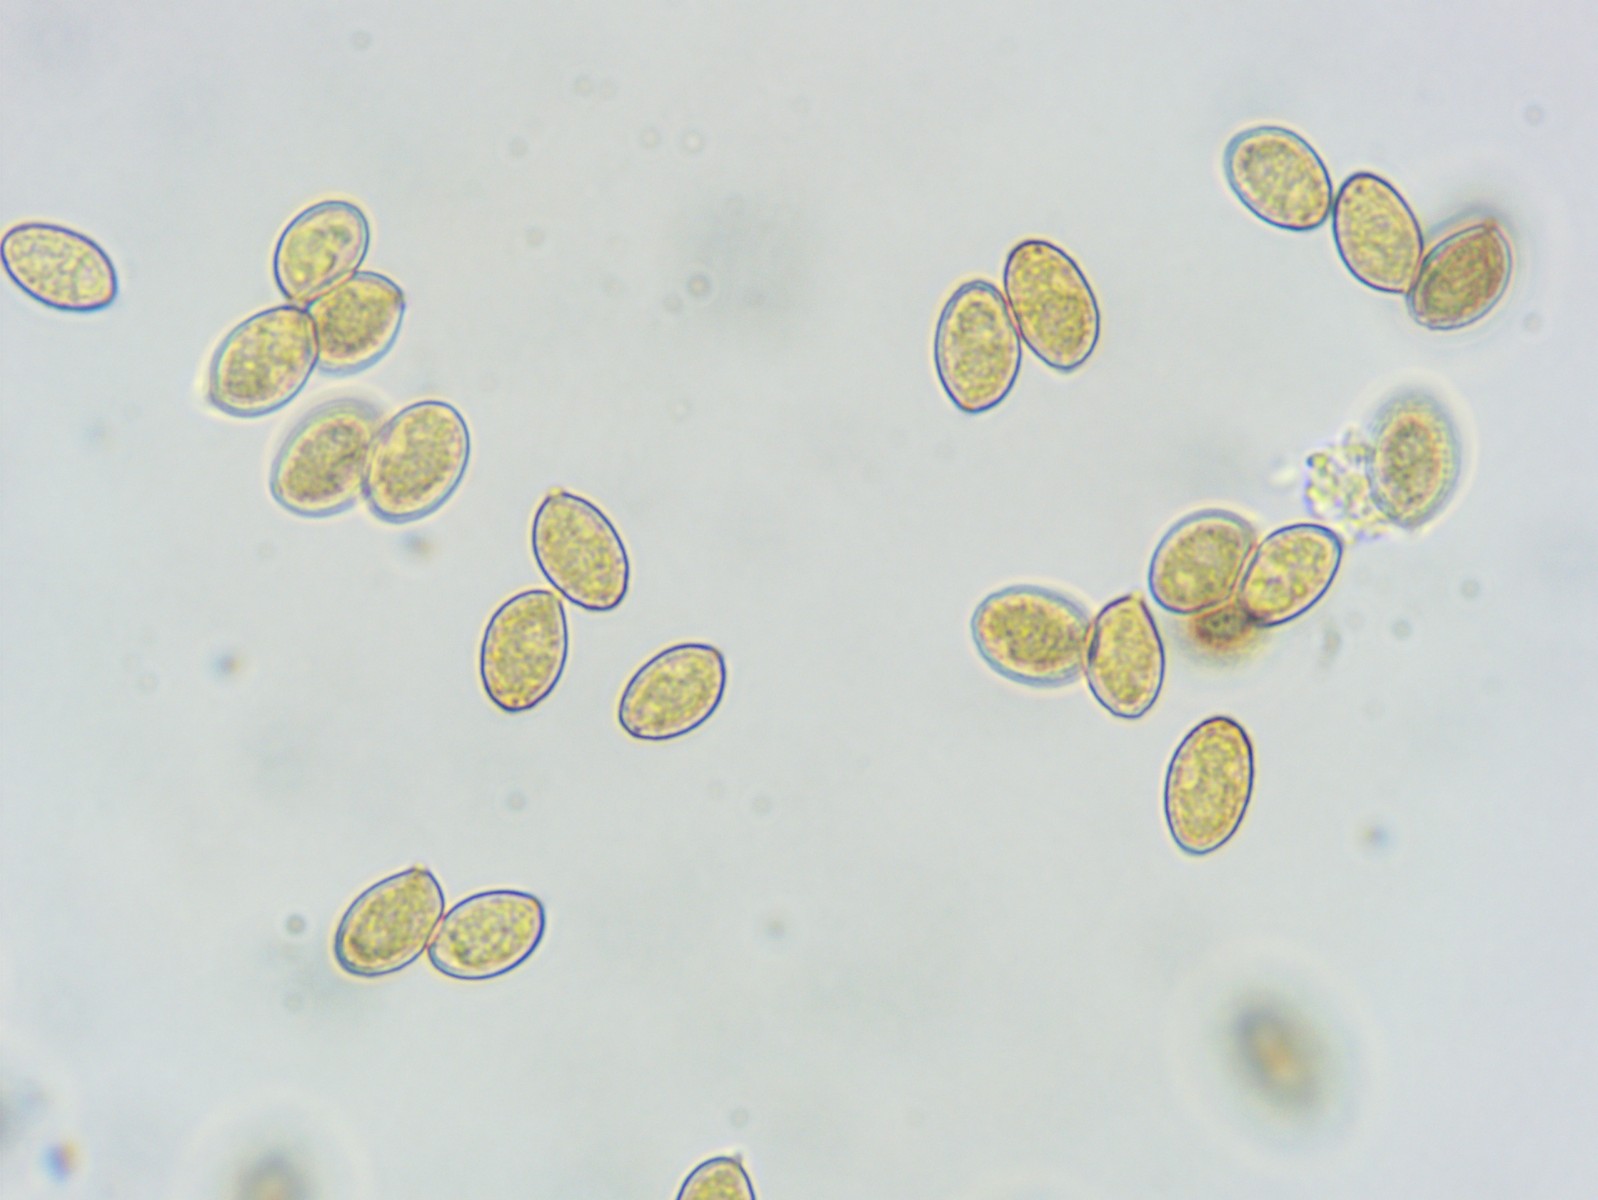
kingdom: Fungi
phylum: Basidiomycota
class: Agaricomycetes
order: Agaricales
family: Cortinariaceae
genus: Cortinarius
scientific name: Cortinarius turgidus
